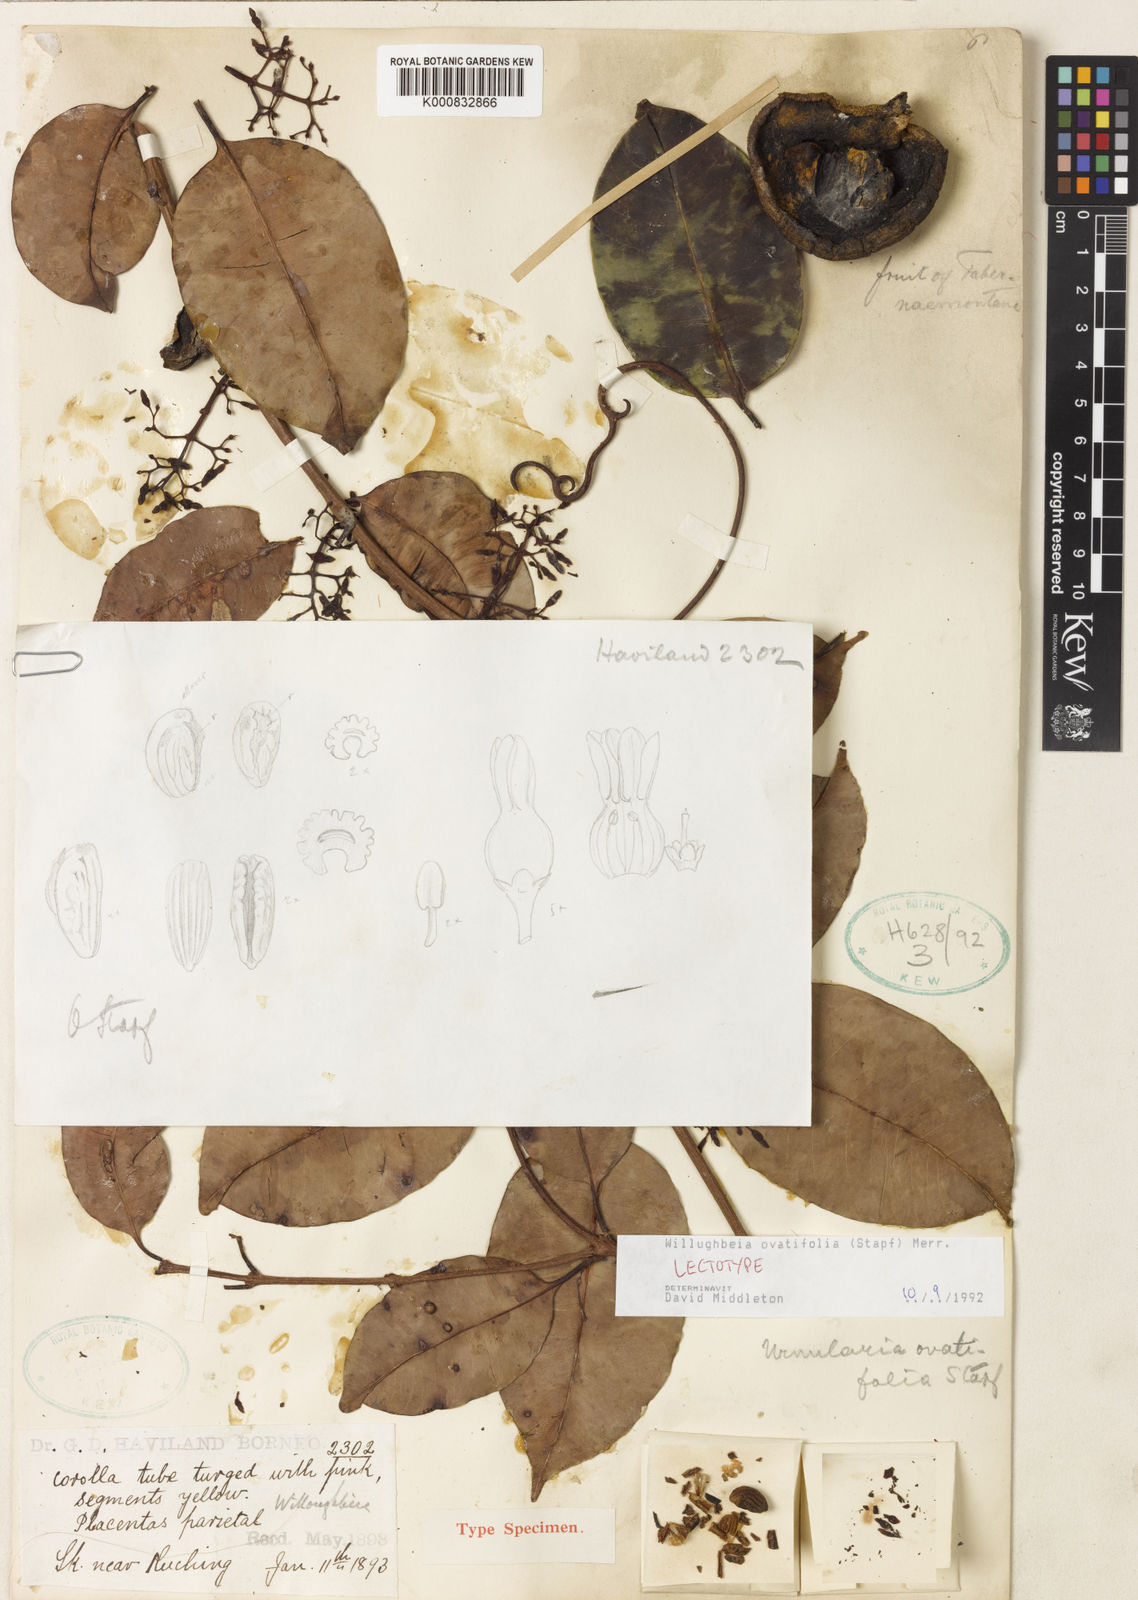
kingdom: Plantae
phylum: Tracheophyta
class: Magnoliopsida
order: Gentianales
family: Apocynaceae
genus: Willughbeia
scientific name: Willughbeia ovatifolia
